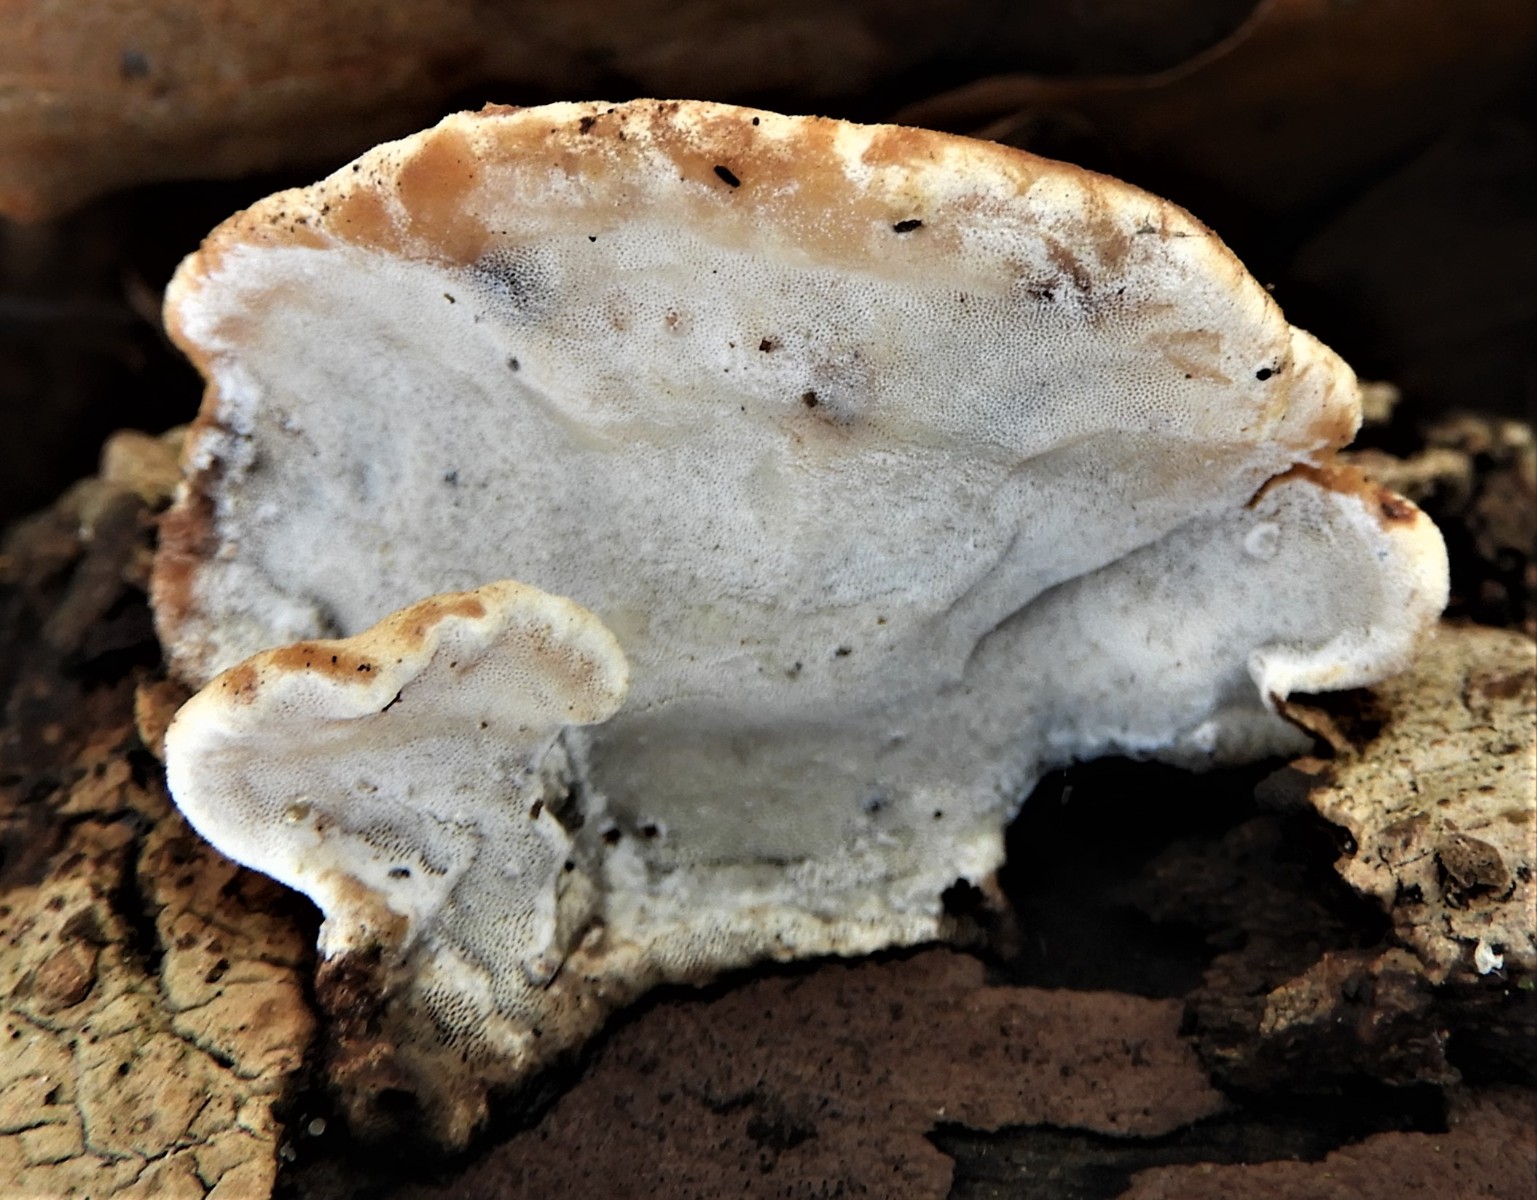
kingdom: Fungi
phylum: Basidiomycota
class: Agaricomycetes
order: Polyporales
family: Incrustoporiaceae
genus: Skeletocutis
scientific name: Skeletocutis nemoralis
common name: stor krystalporesvamp
